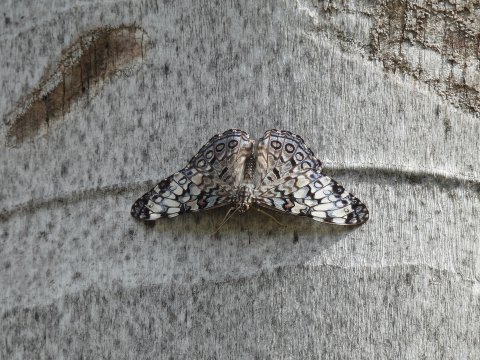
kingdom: Animalia
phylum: Arthropoda
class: Insecta
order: Lepidoptera
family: Nymphalidae
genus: Hamadryas
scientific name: Hamadryas guatemalena
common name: Guatemalan Cracker
